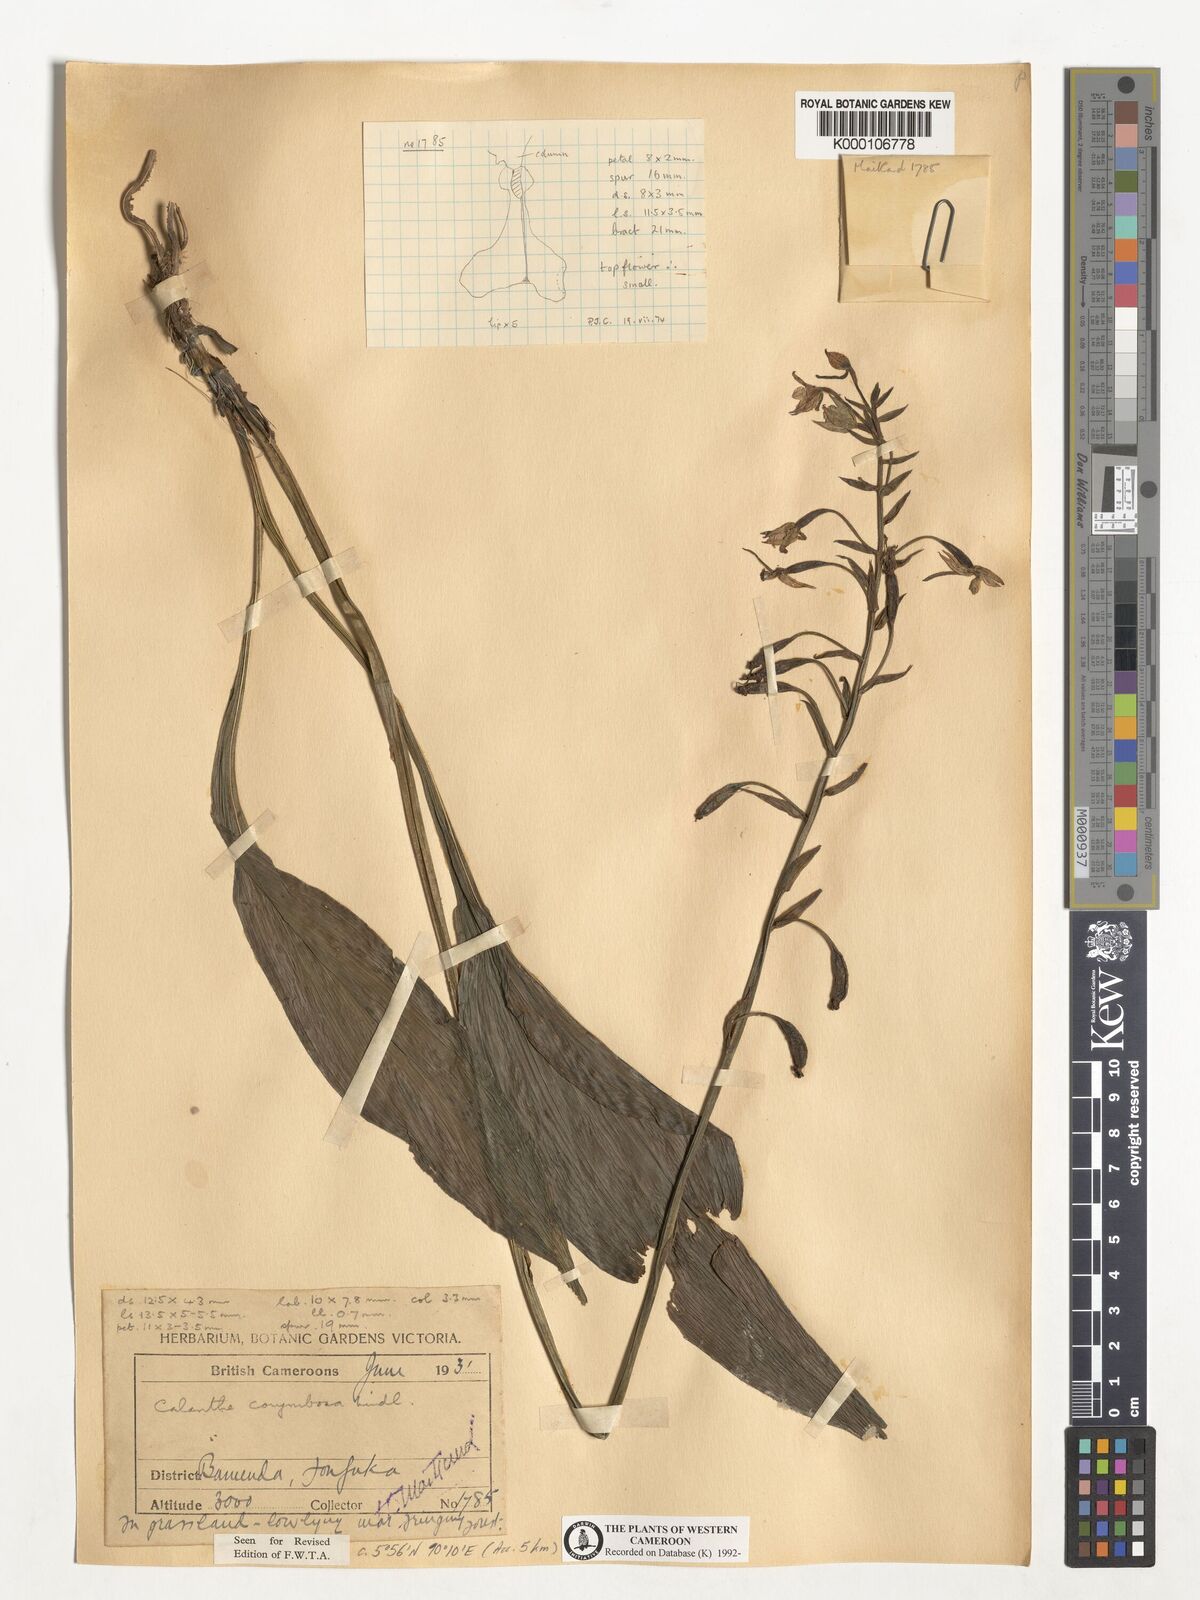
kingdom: Plantae
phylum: Tracheophyta
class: Liliopsida
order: Asparagales
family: Orchidaceae
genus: Calanthe
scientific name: Calanthe sylvatica
